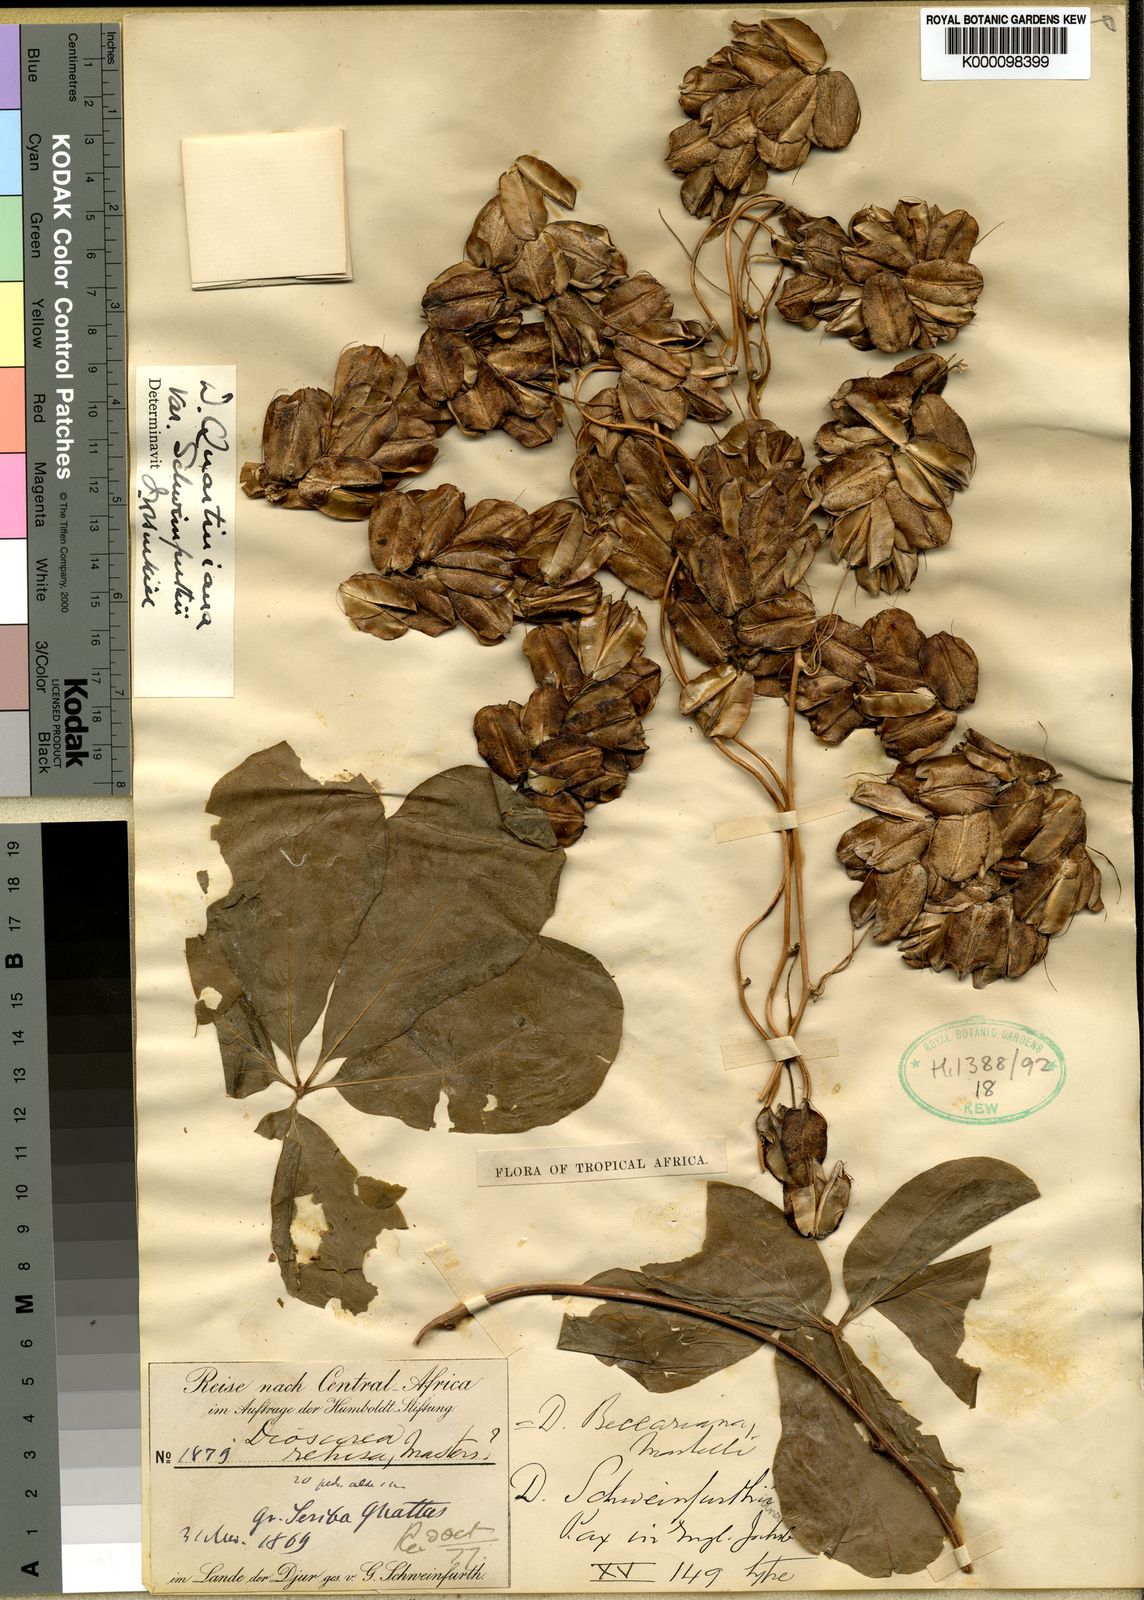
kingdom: Plantae
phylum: Tracheophyta
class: Liliopsida
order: Dioscoreales
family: Dioscoreaceae
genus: Dioscorea
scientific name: Dioscorea quartiniana
